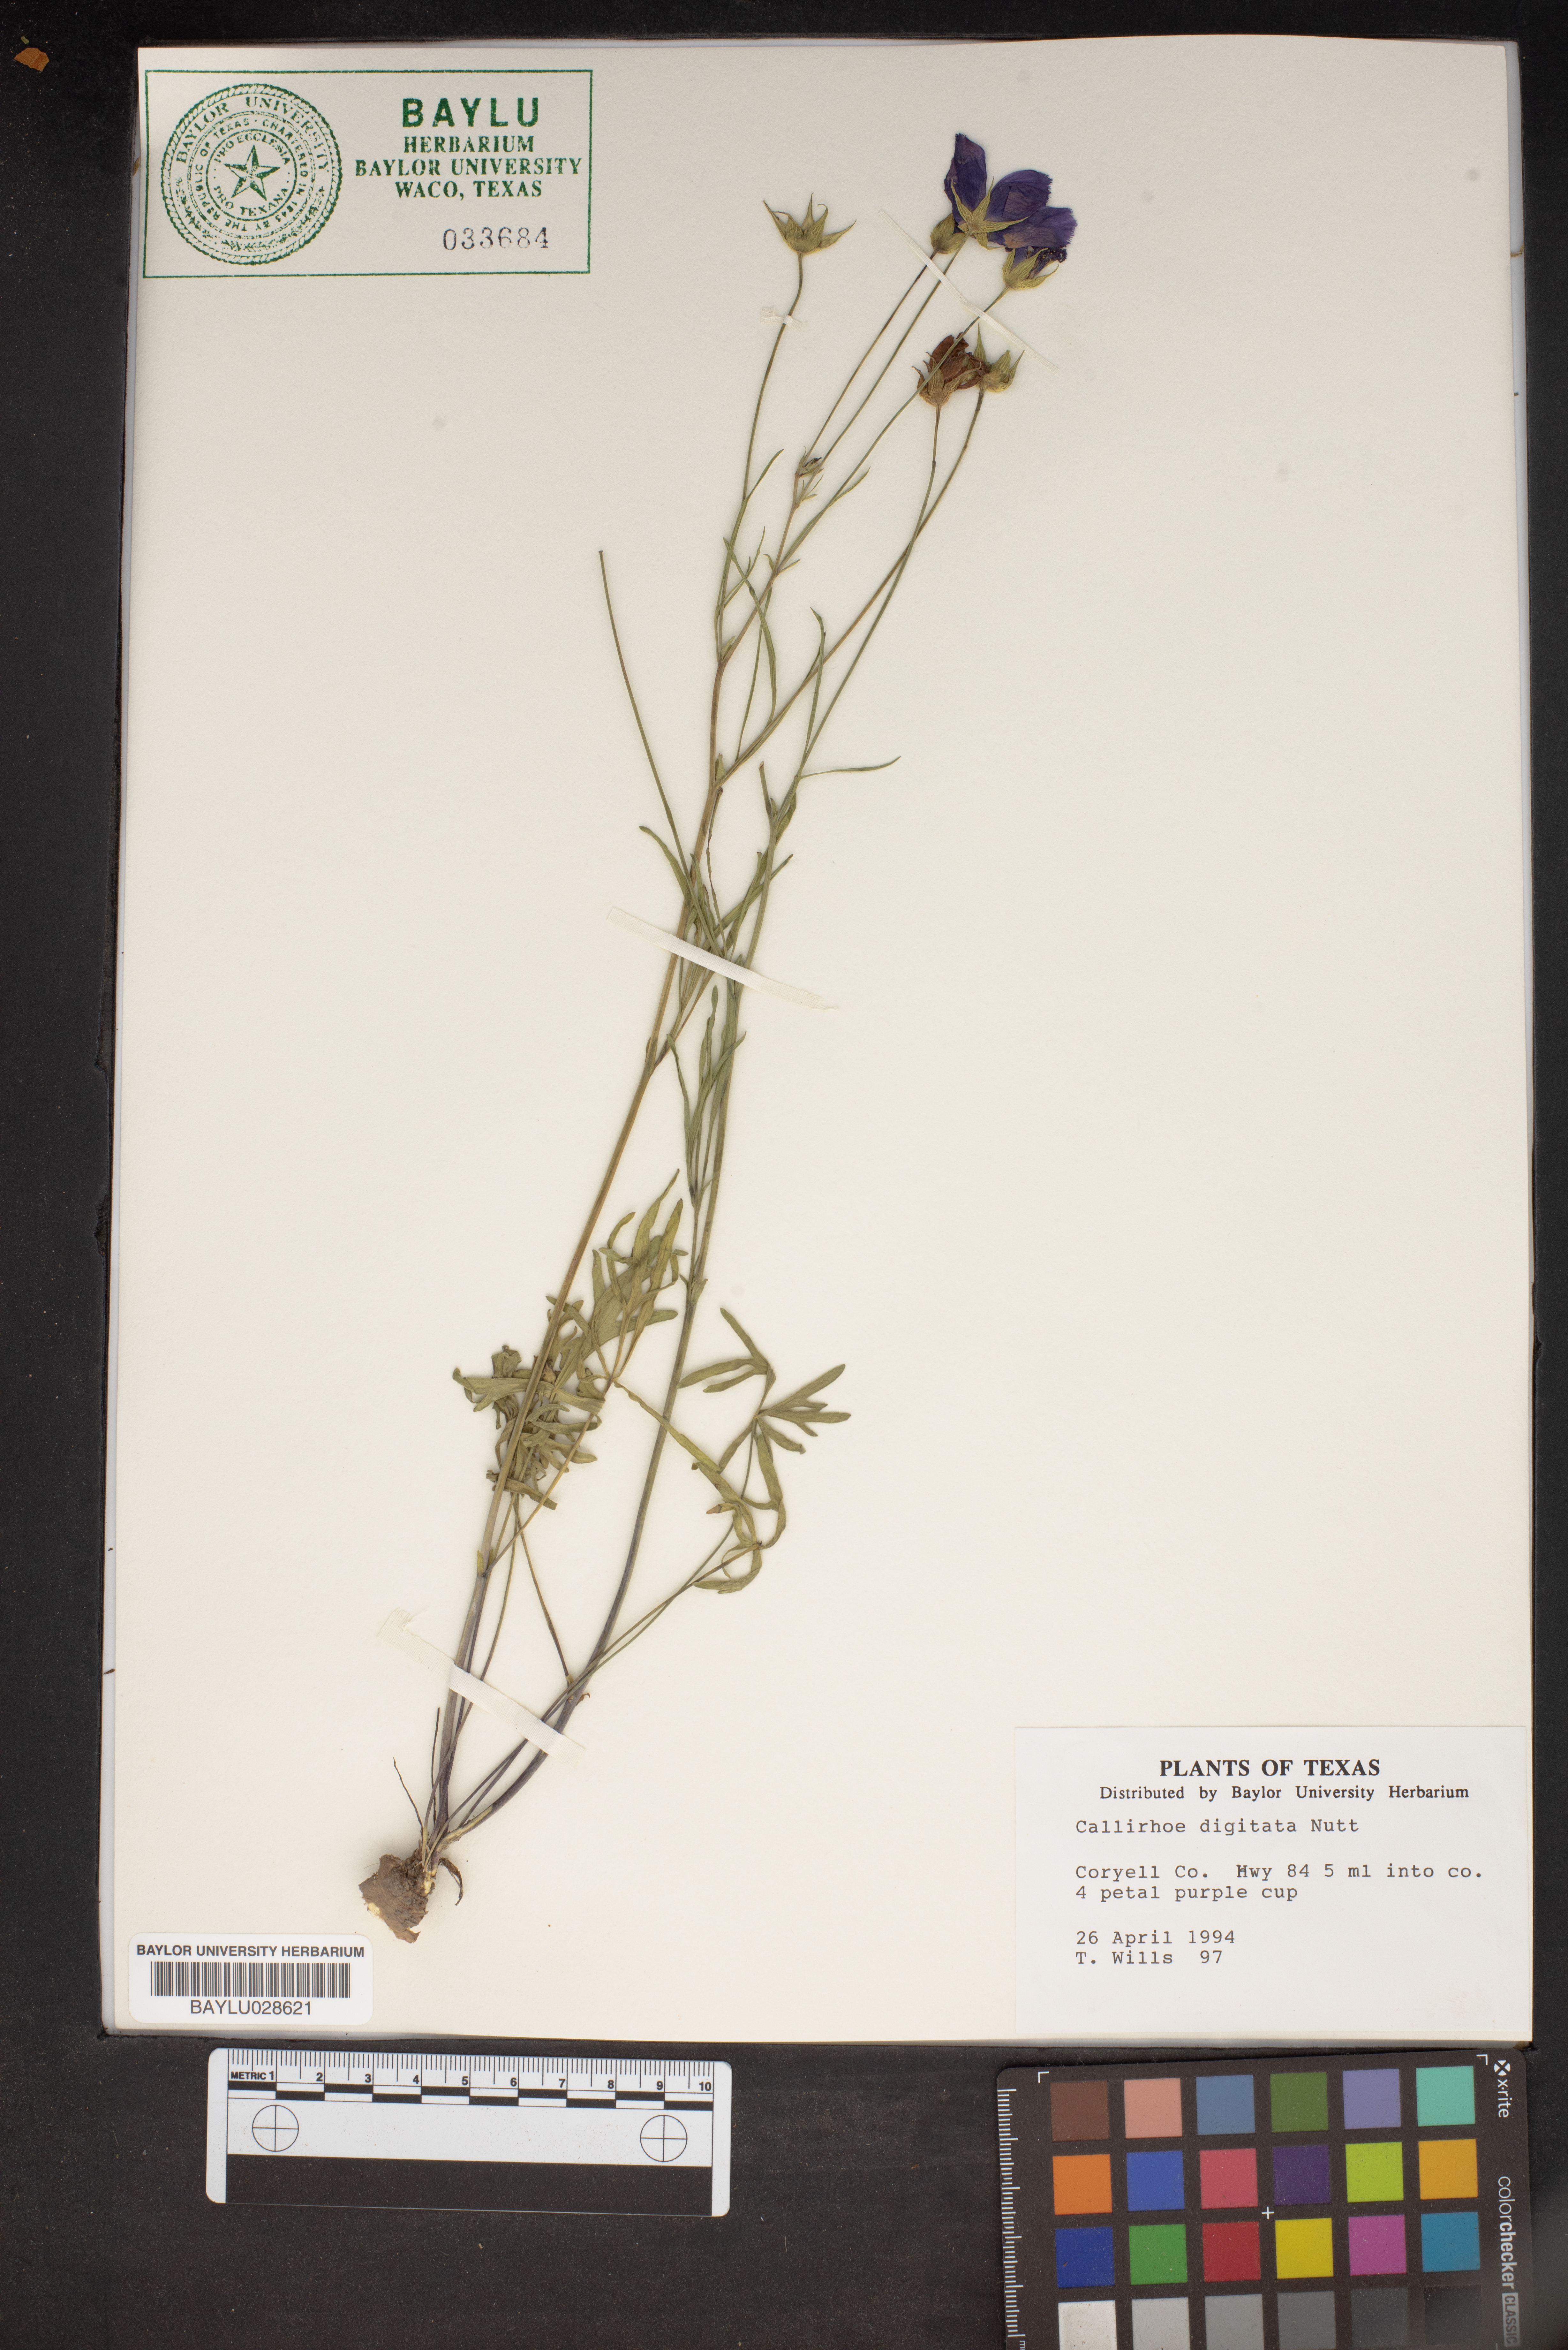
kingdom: Plantae
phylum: Tracheophyta
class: Magnoliopsida
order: Malvales
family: Malvaceae
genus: Callirhoe
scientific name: Callirhoe digitata
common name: Finger poppy-mallow
